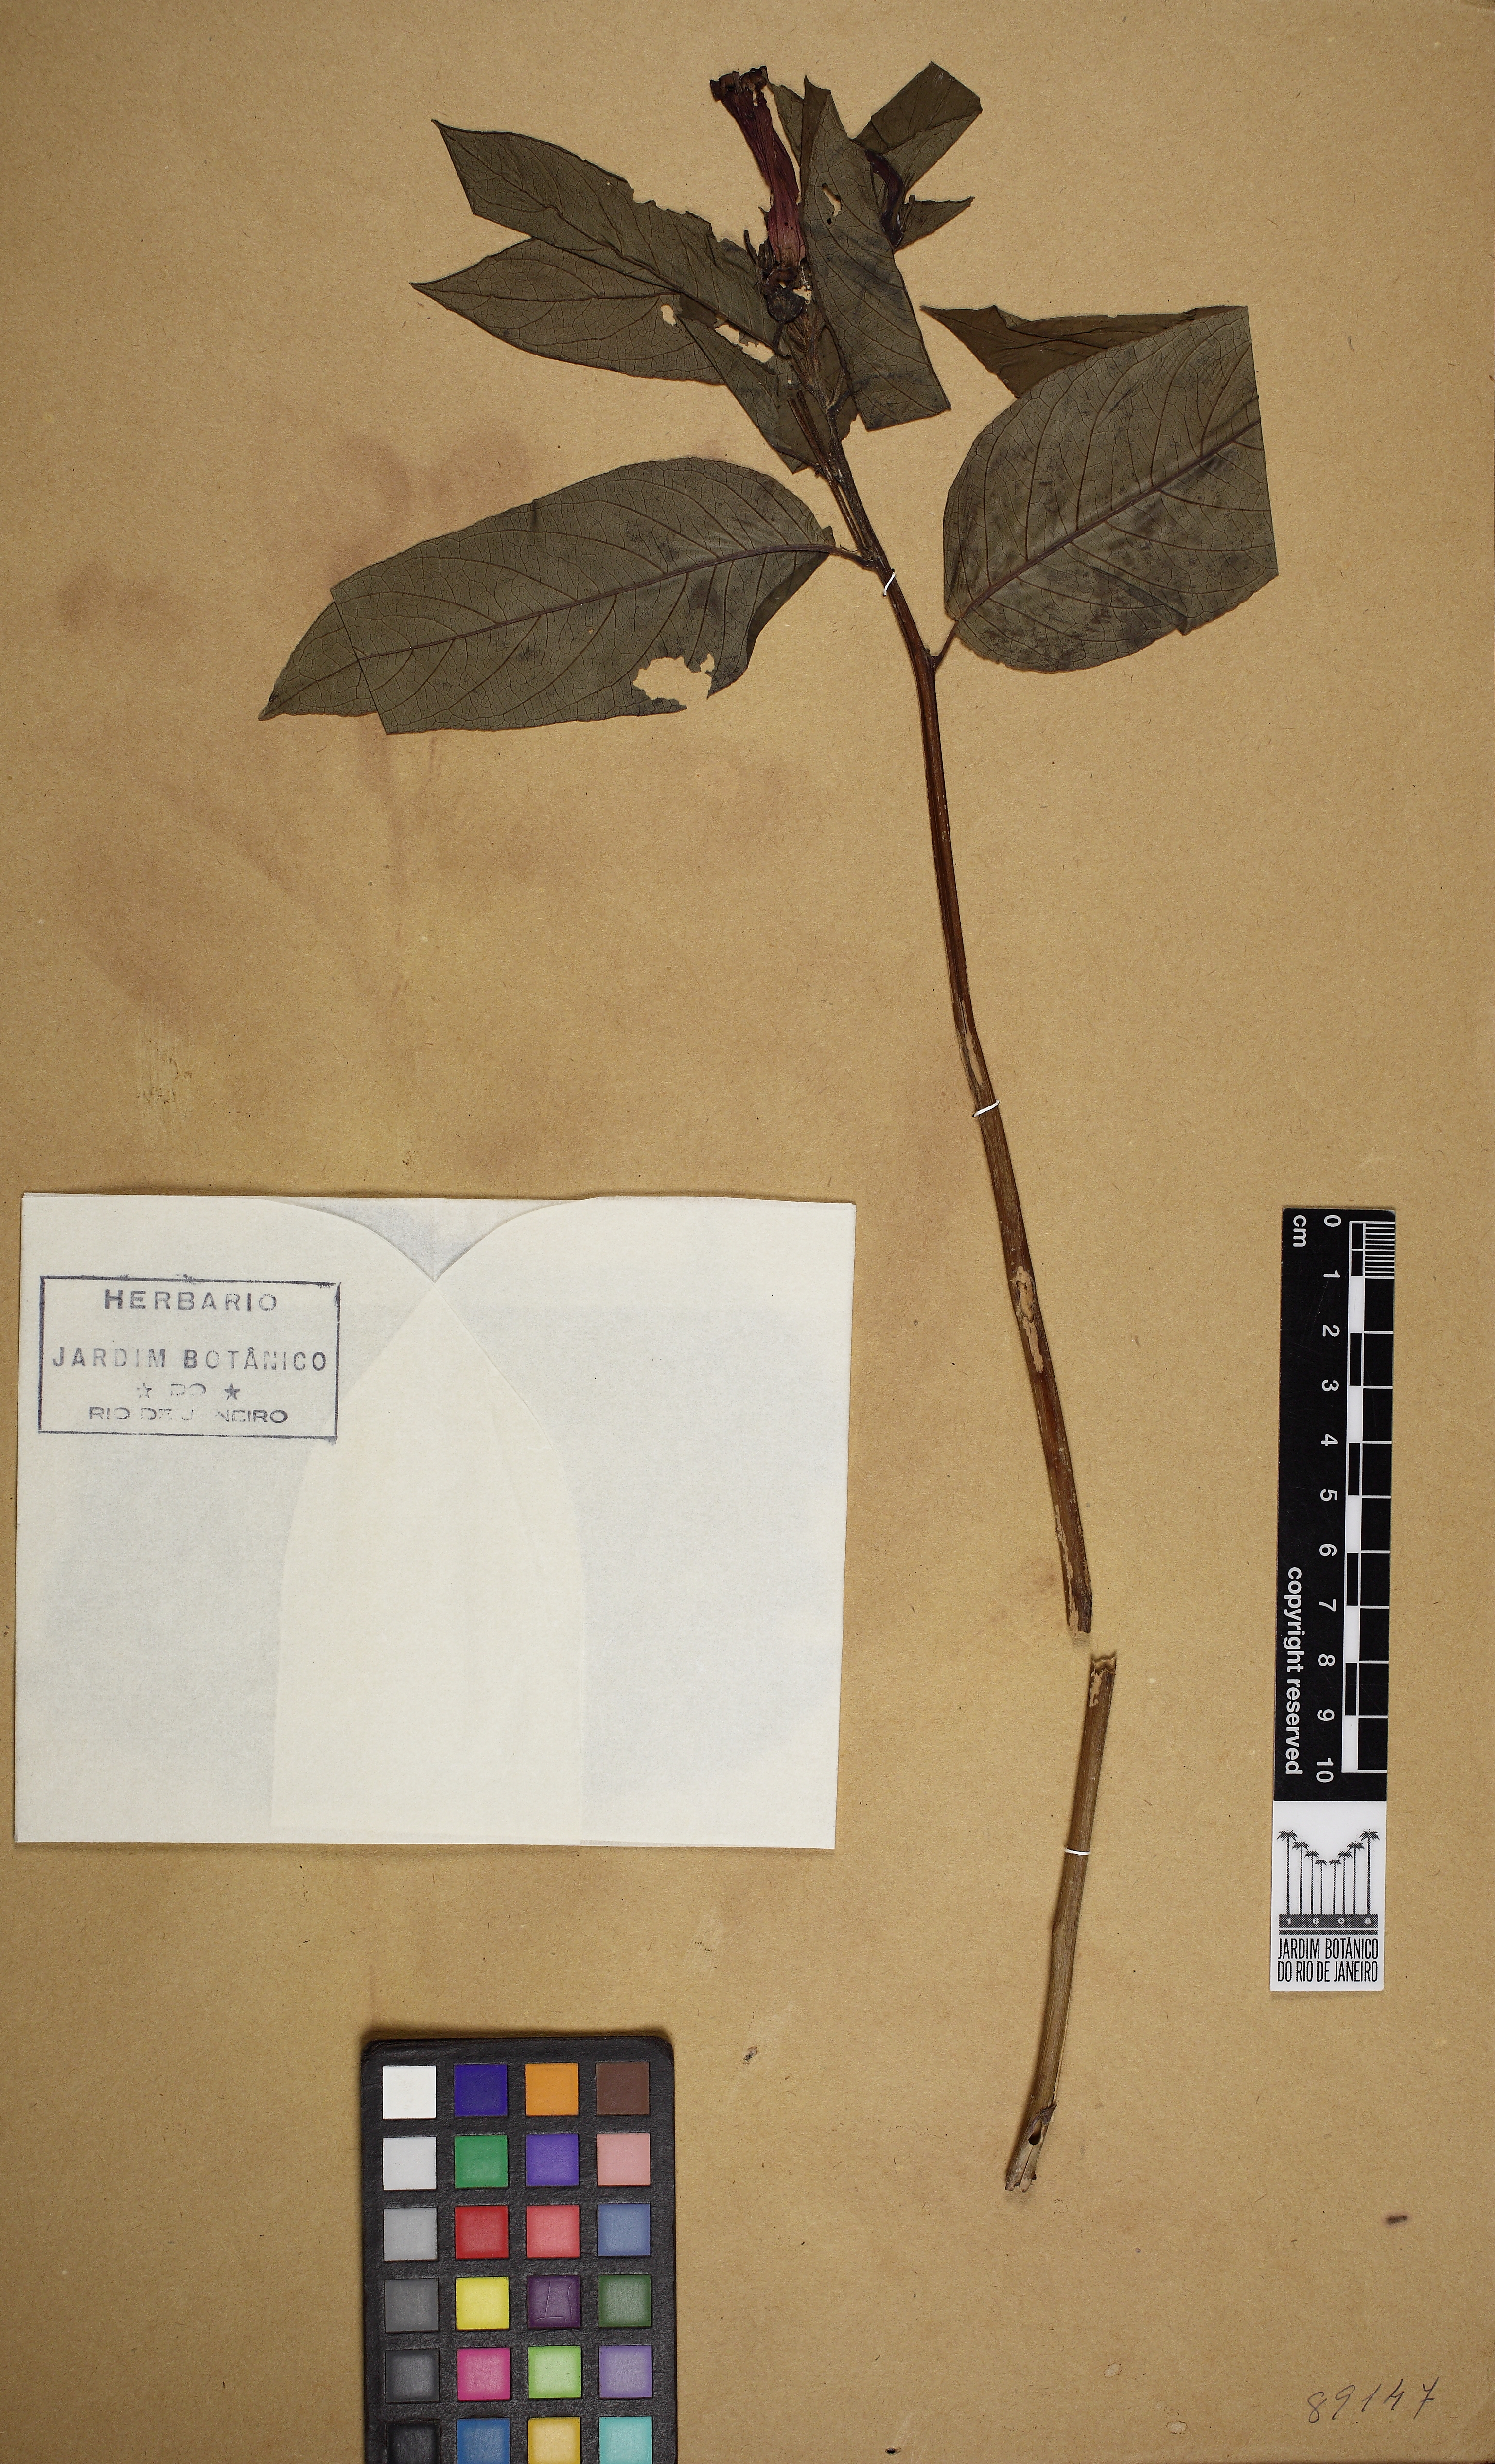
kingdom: Plantae
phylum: Tracheophyta
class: Magnoliopsida
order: Asterales
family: Campanulaceae
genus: Centropogon
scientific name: Centropogon cornutus
